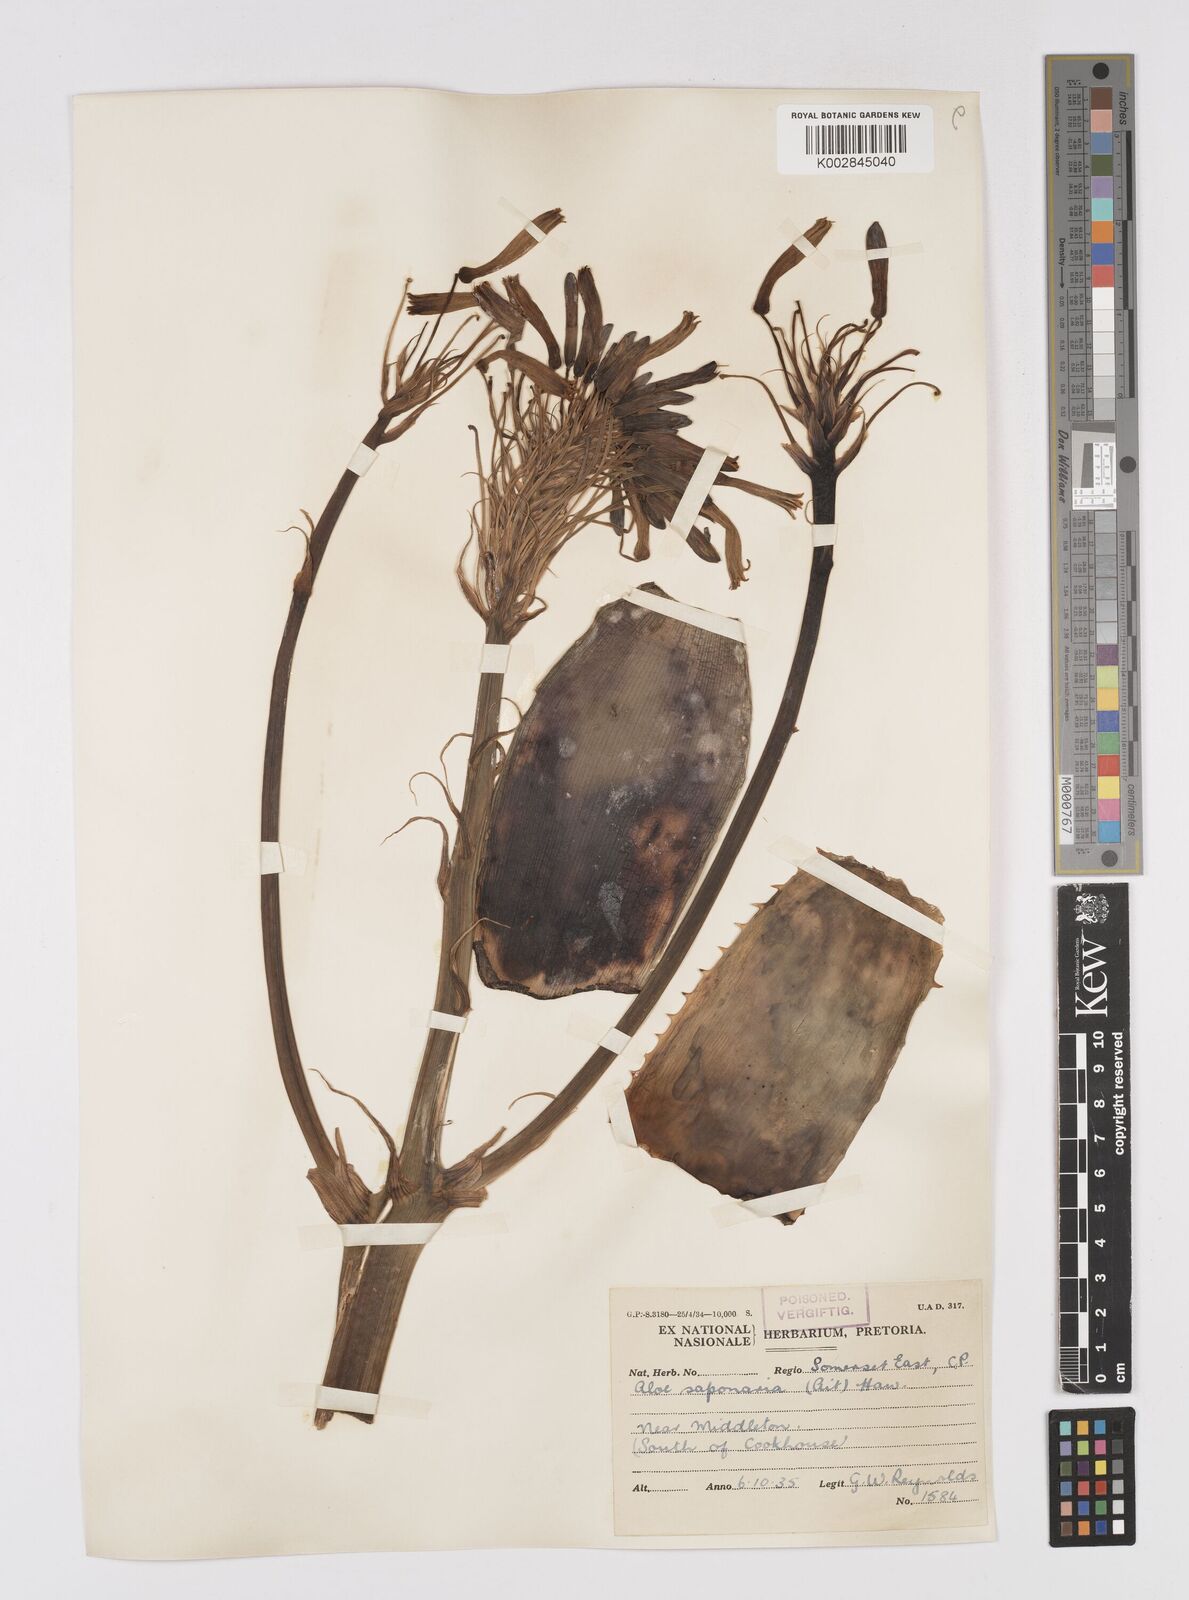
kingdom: Plantae
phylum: Tracheophyta
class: Liliopsida
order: Asparagales
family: Asphodelaceae
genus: Aloe
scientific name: Aloe microstigma
